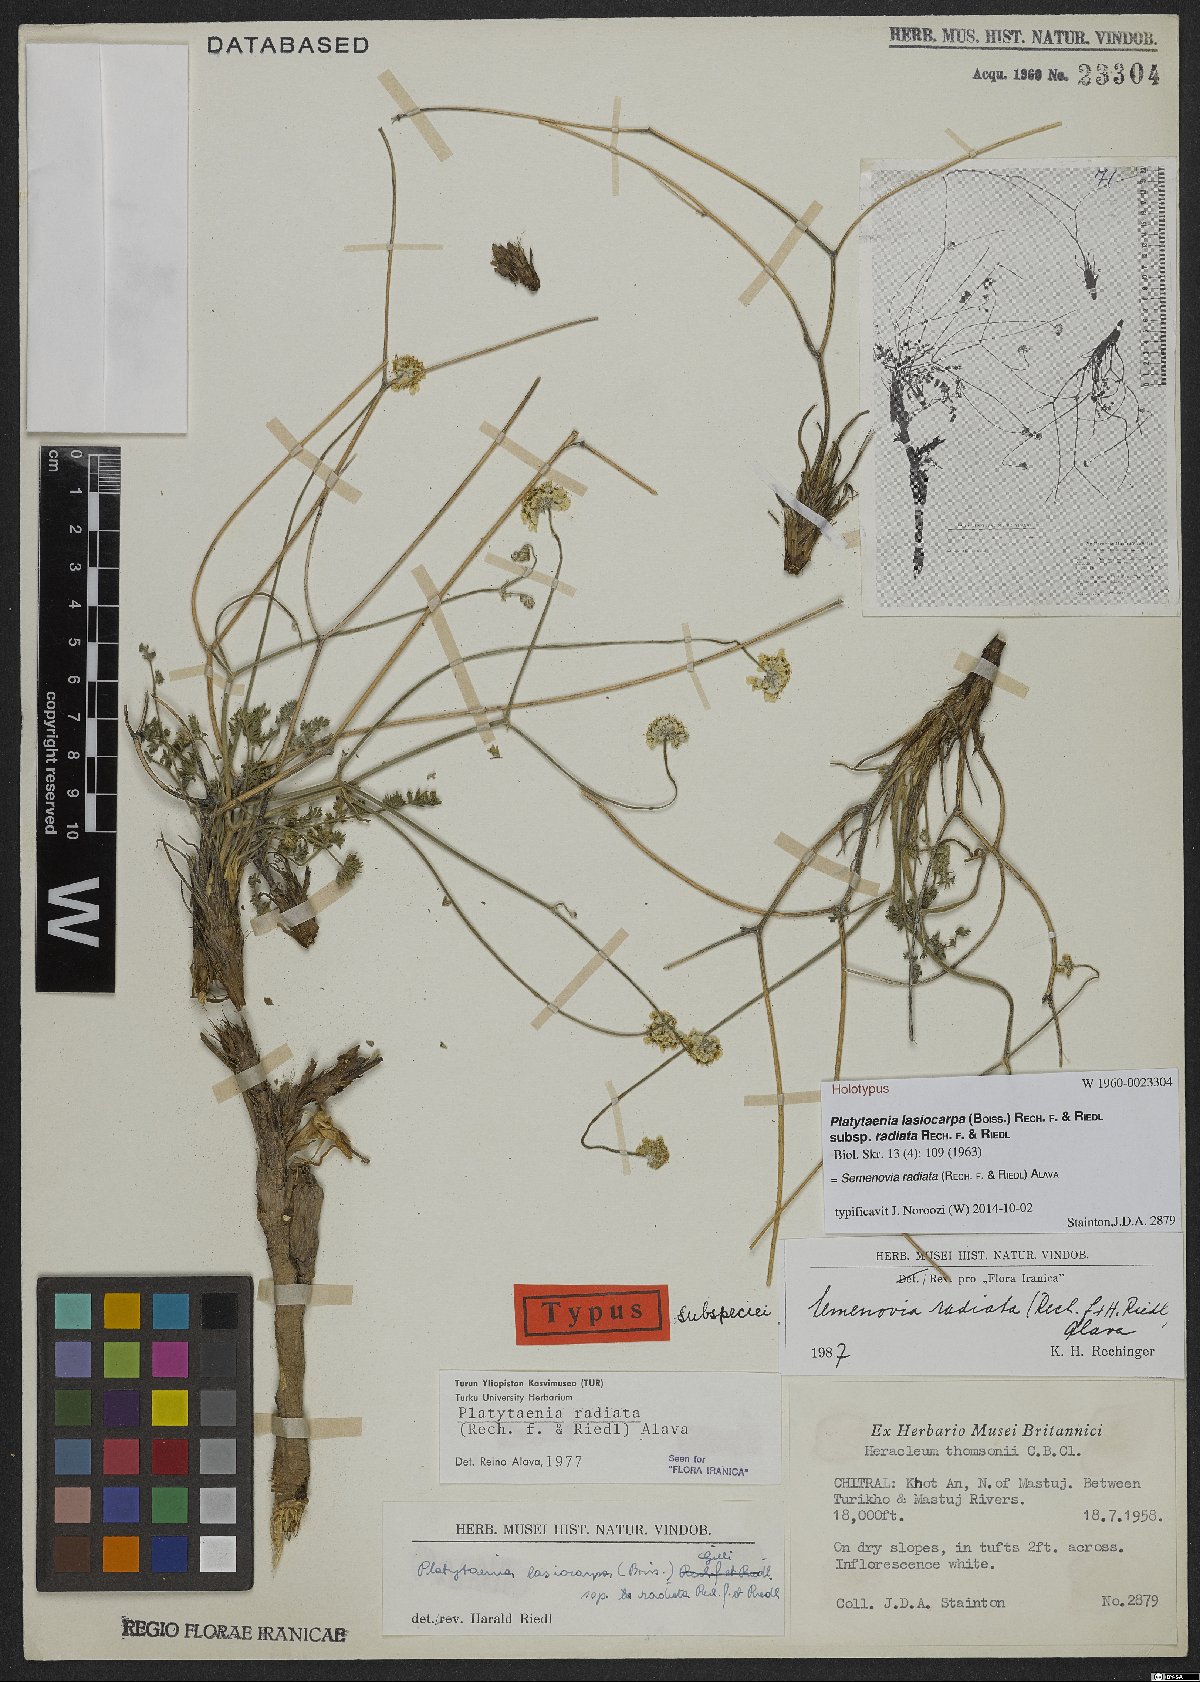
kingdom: Plantae
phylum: Tracheophyta
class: Magnoliopsida
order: Apiales
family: Apiaceae
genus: Semenovia
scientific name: Semenovia radiata
